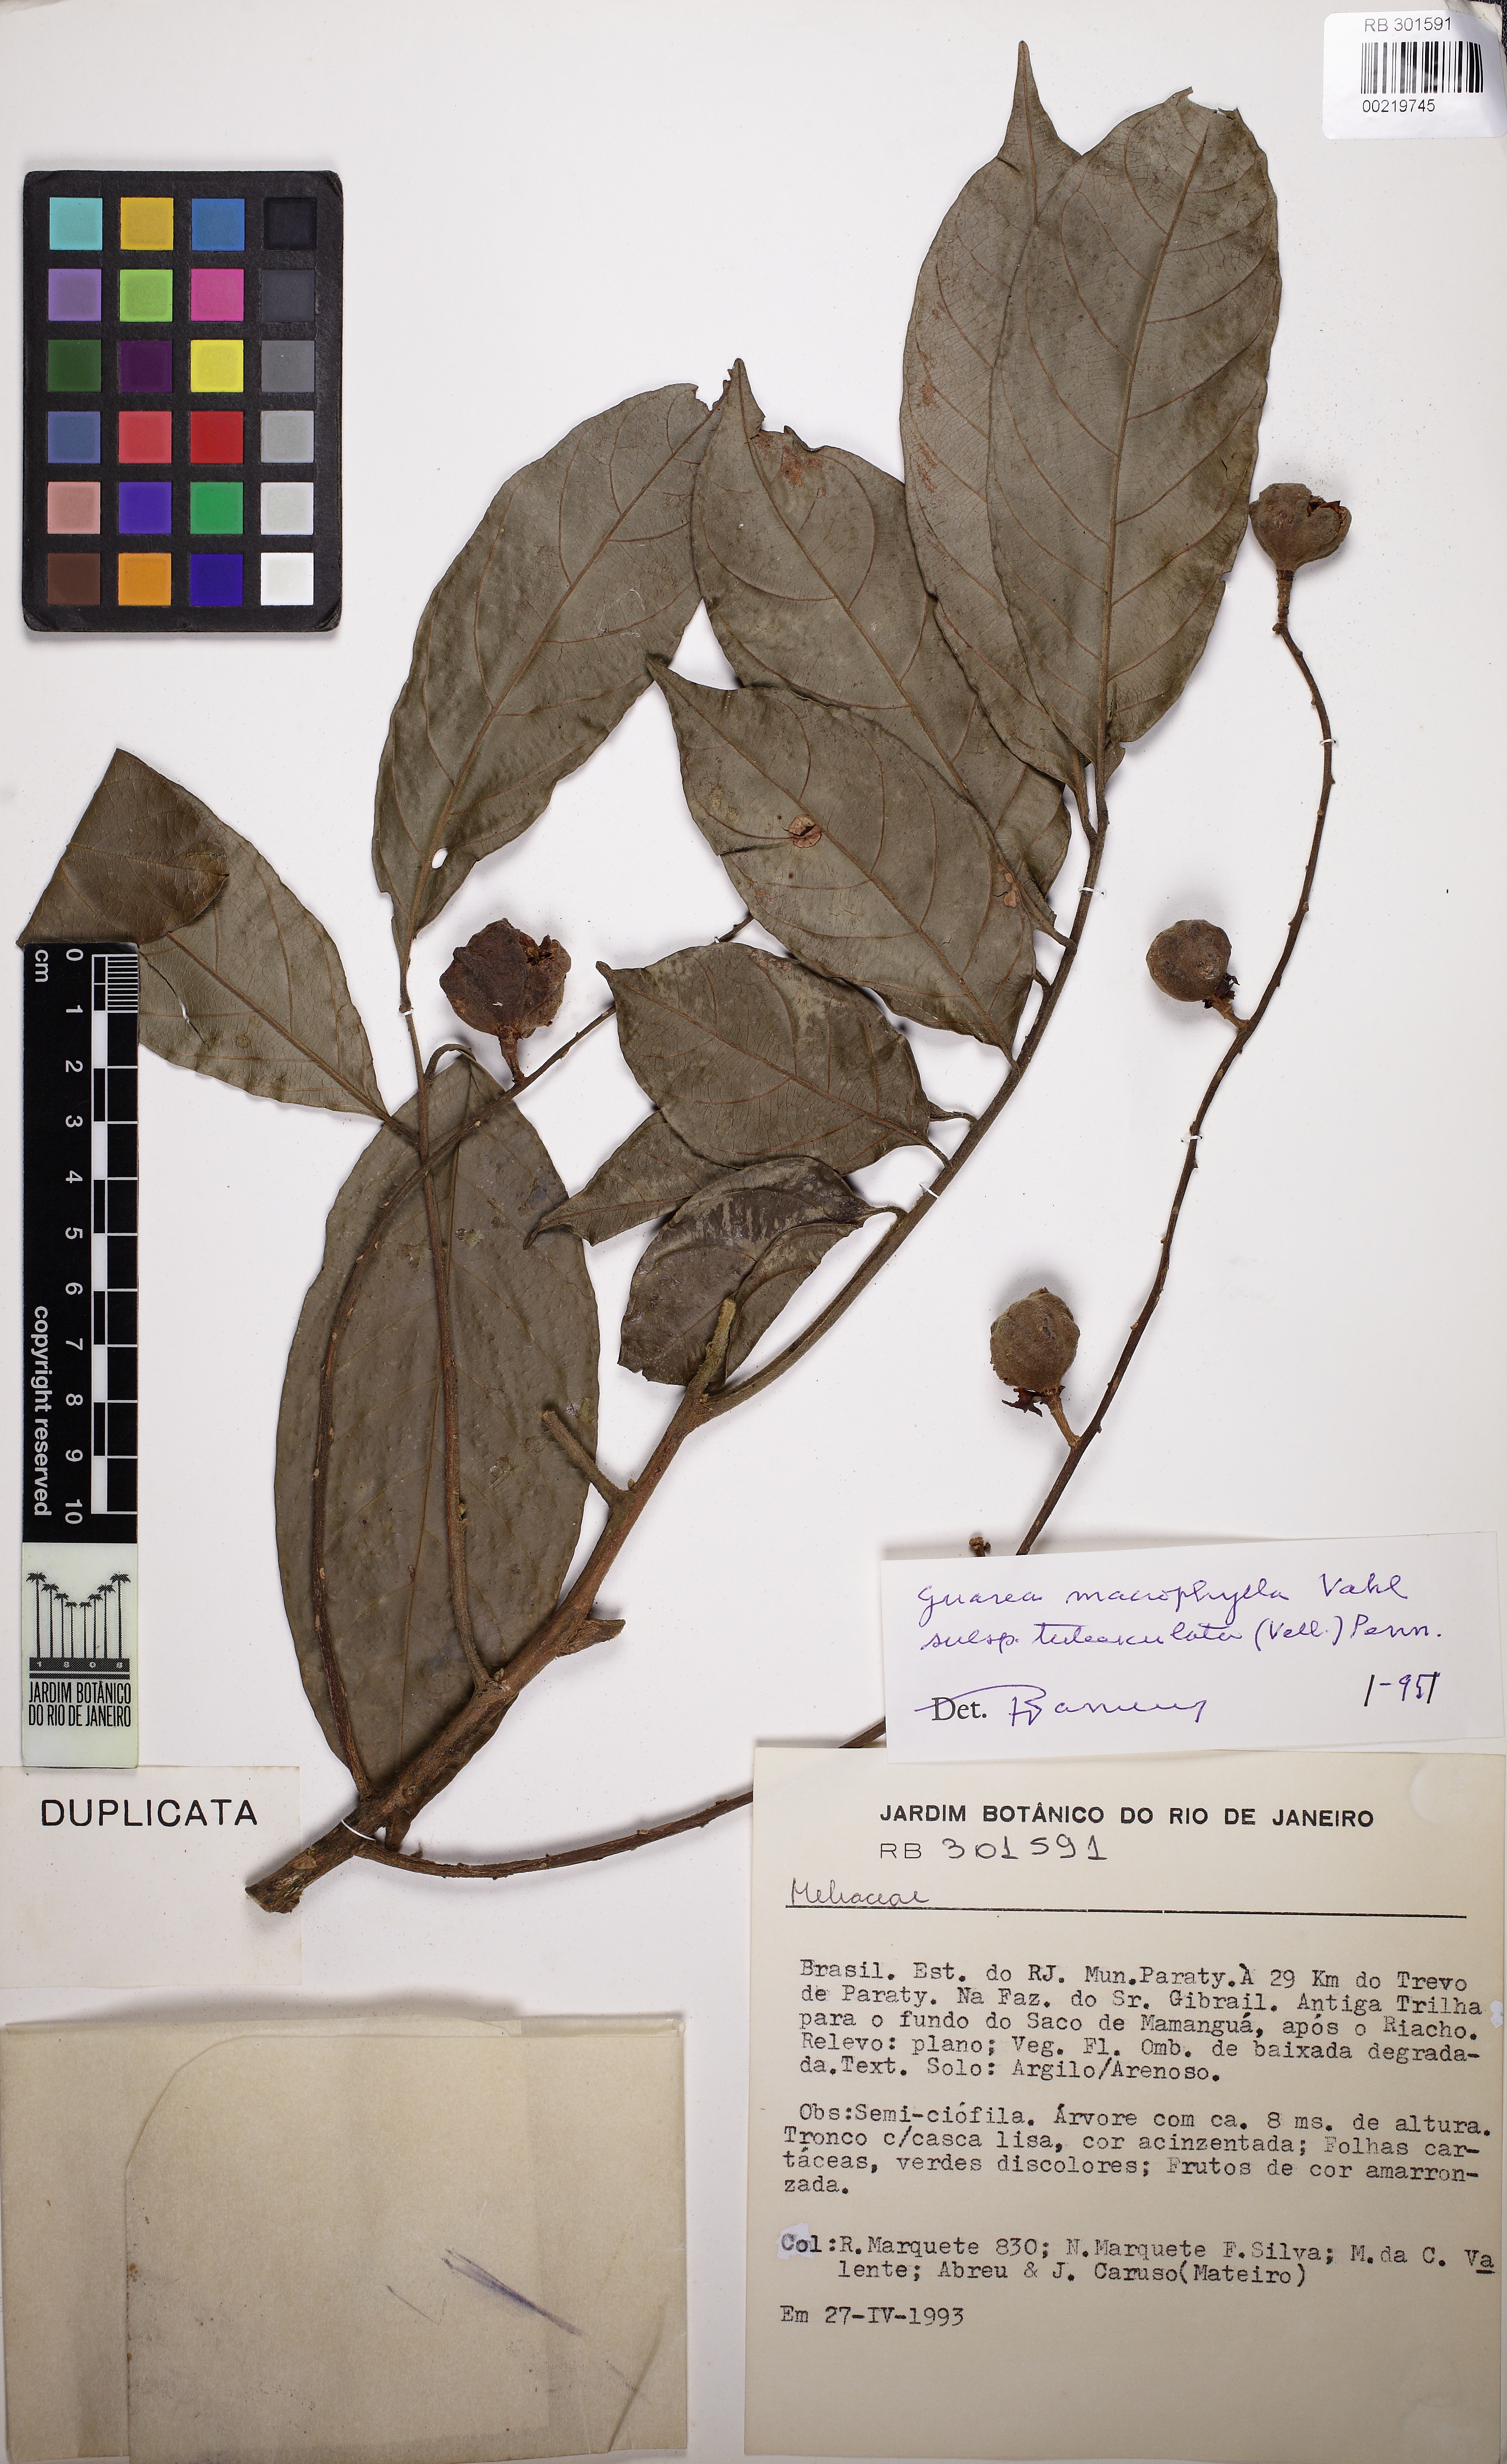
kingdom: Plantae
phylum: Tracheophyta
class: Magnoliopsida
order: Sapindales
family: Meliaceae
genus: Guarea
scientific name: Guarea macrophylla
